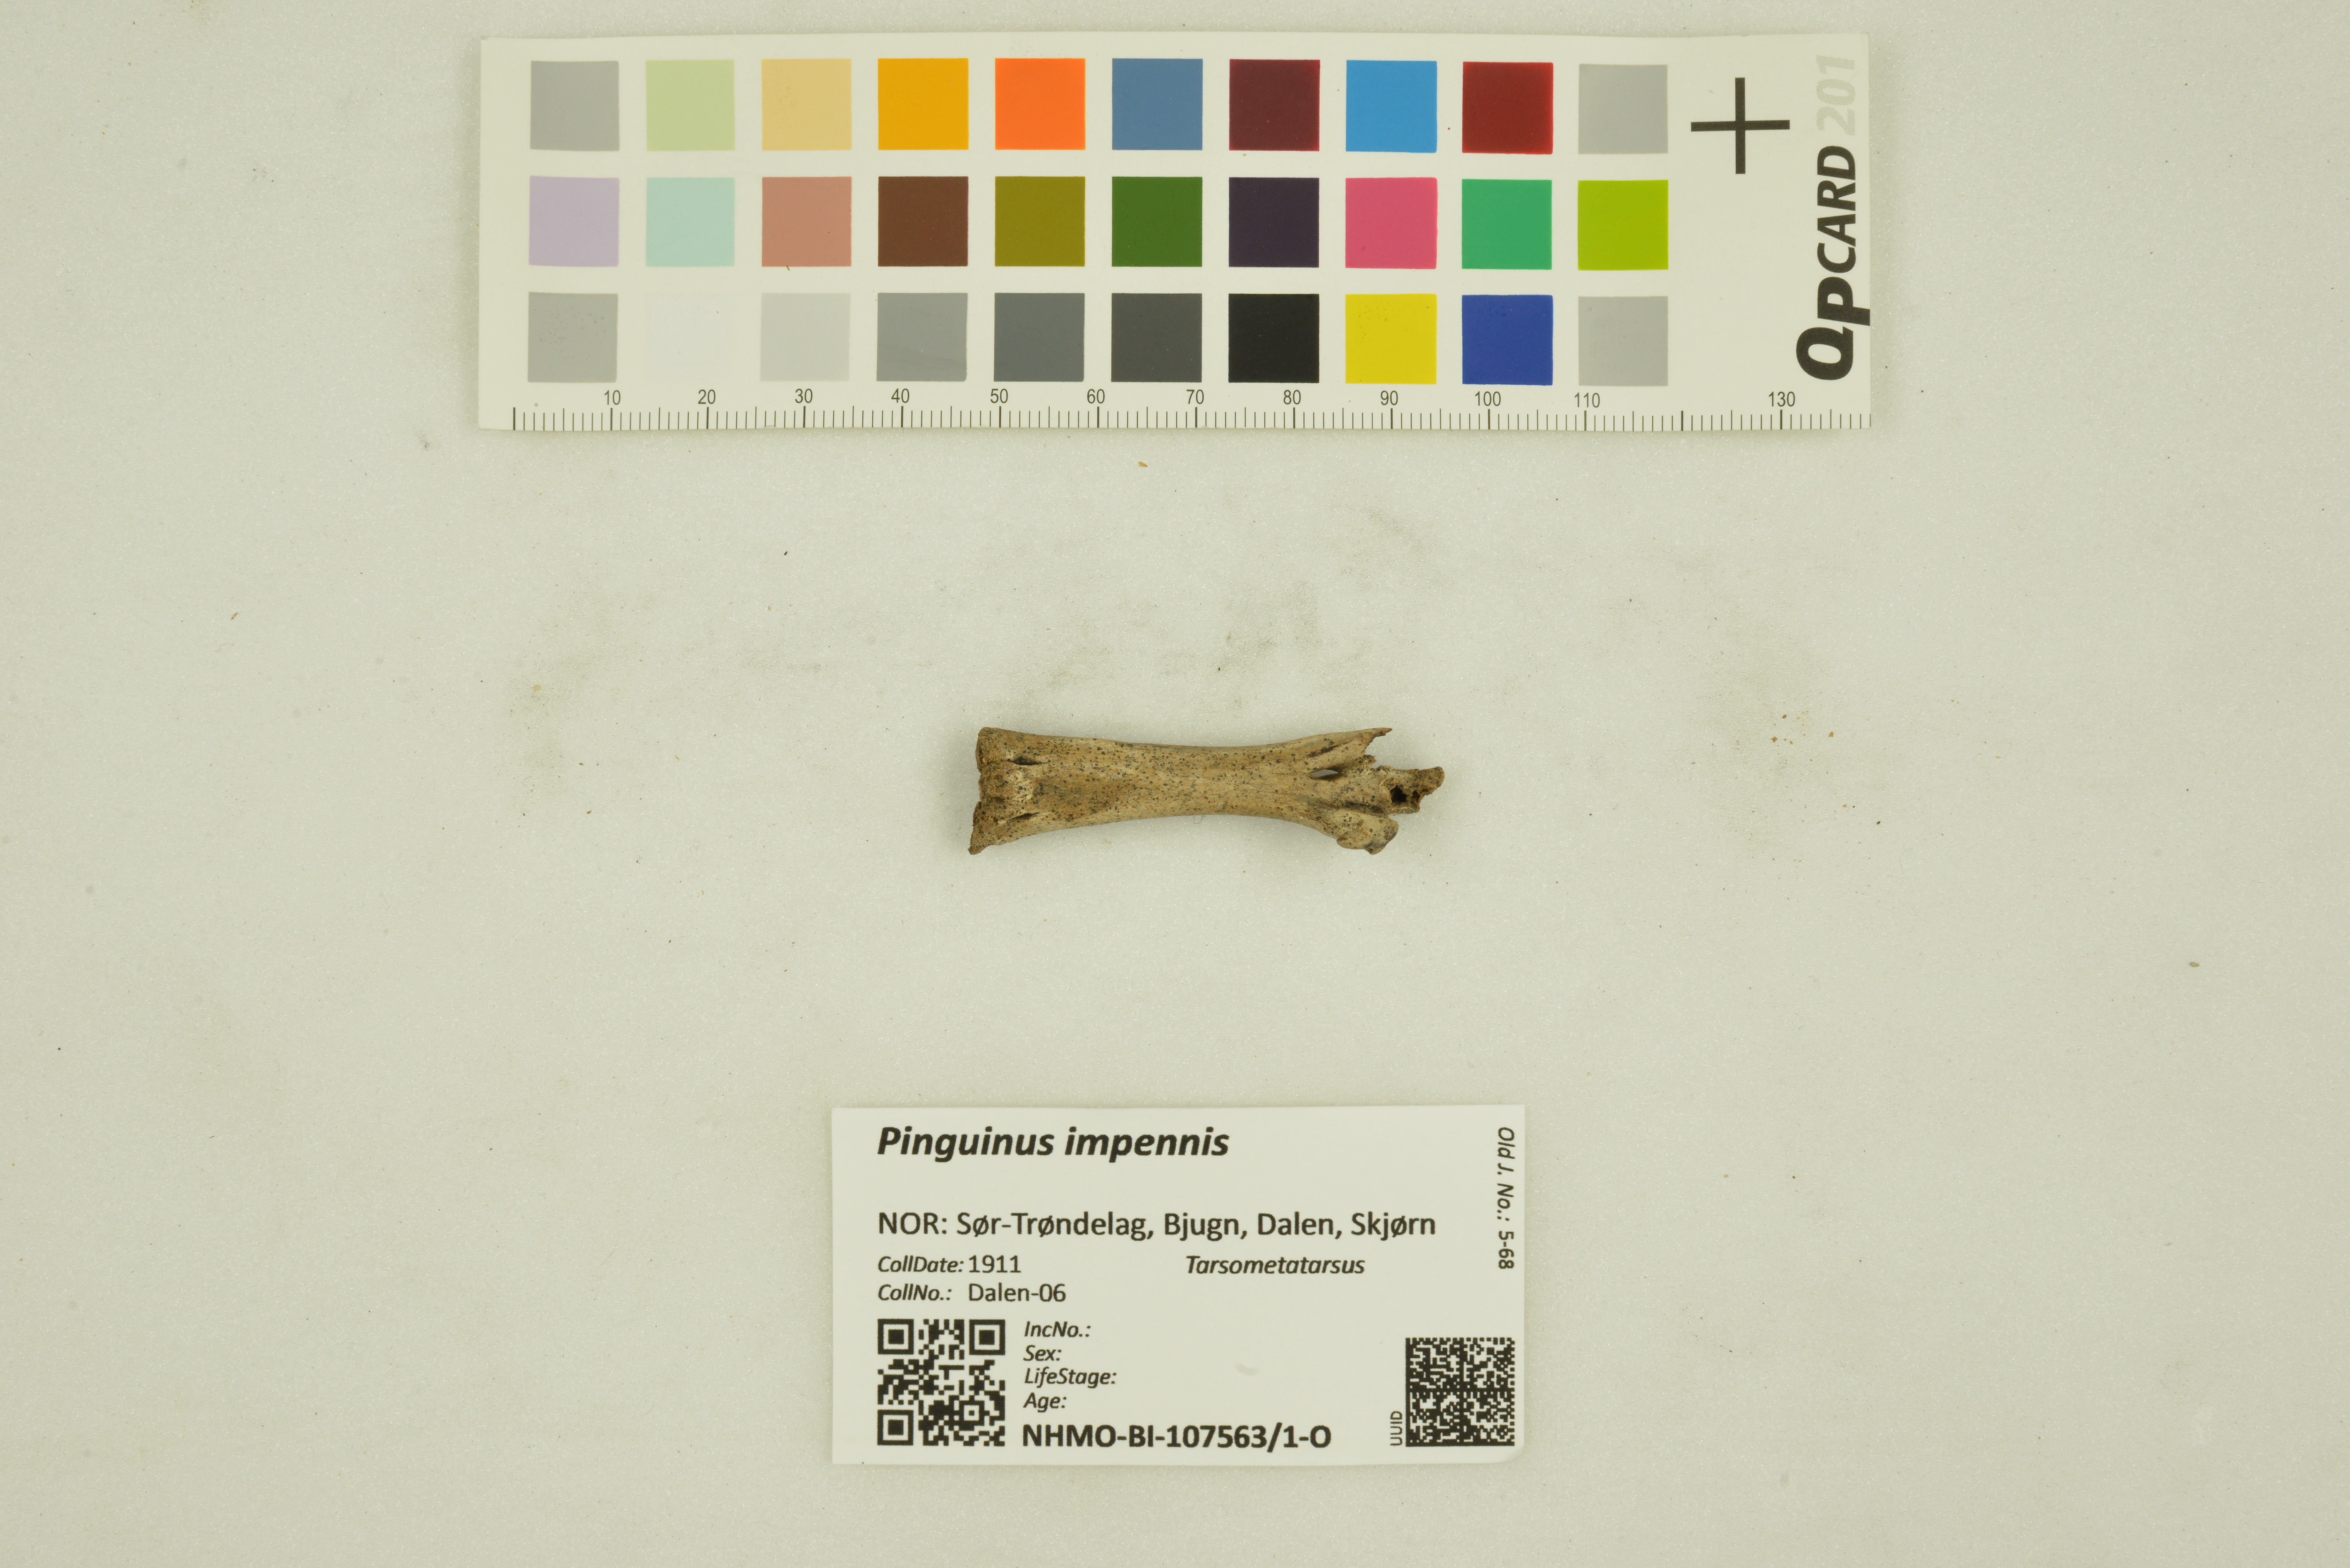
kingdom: Animalia
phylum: Chordata
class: Aves
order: Charadriiformes
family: Alcidae
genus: Pinguinus
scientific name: Pinguinus impennis
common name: Great auk
